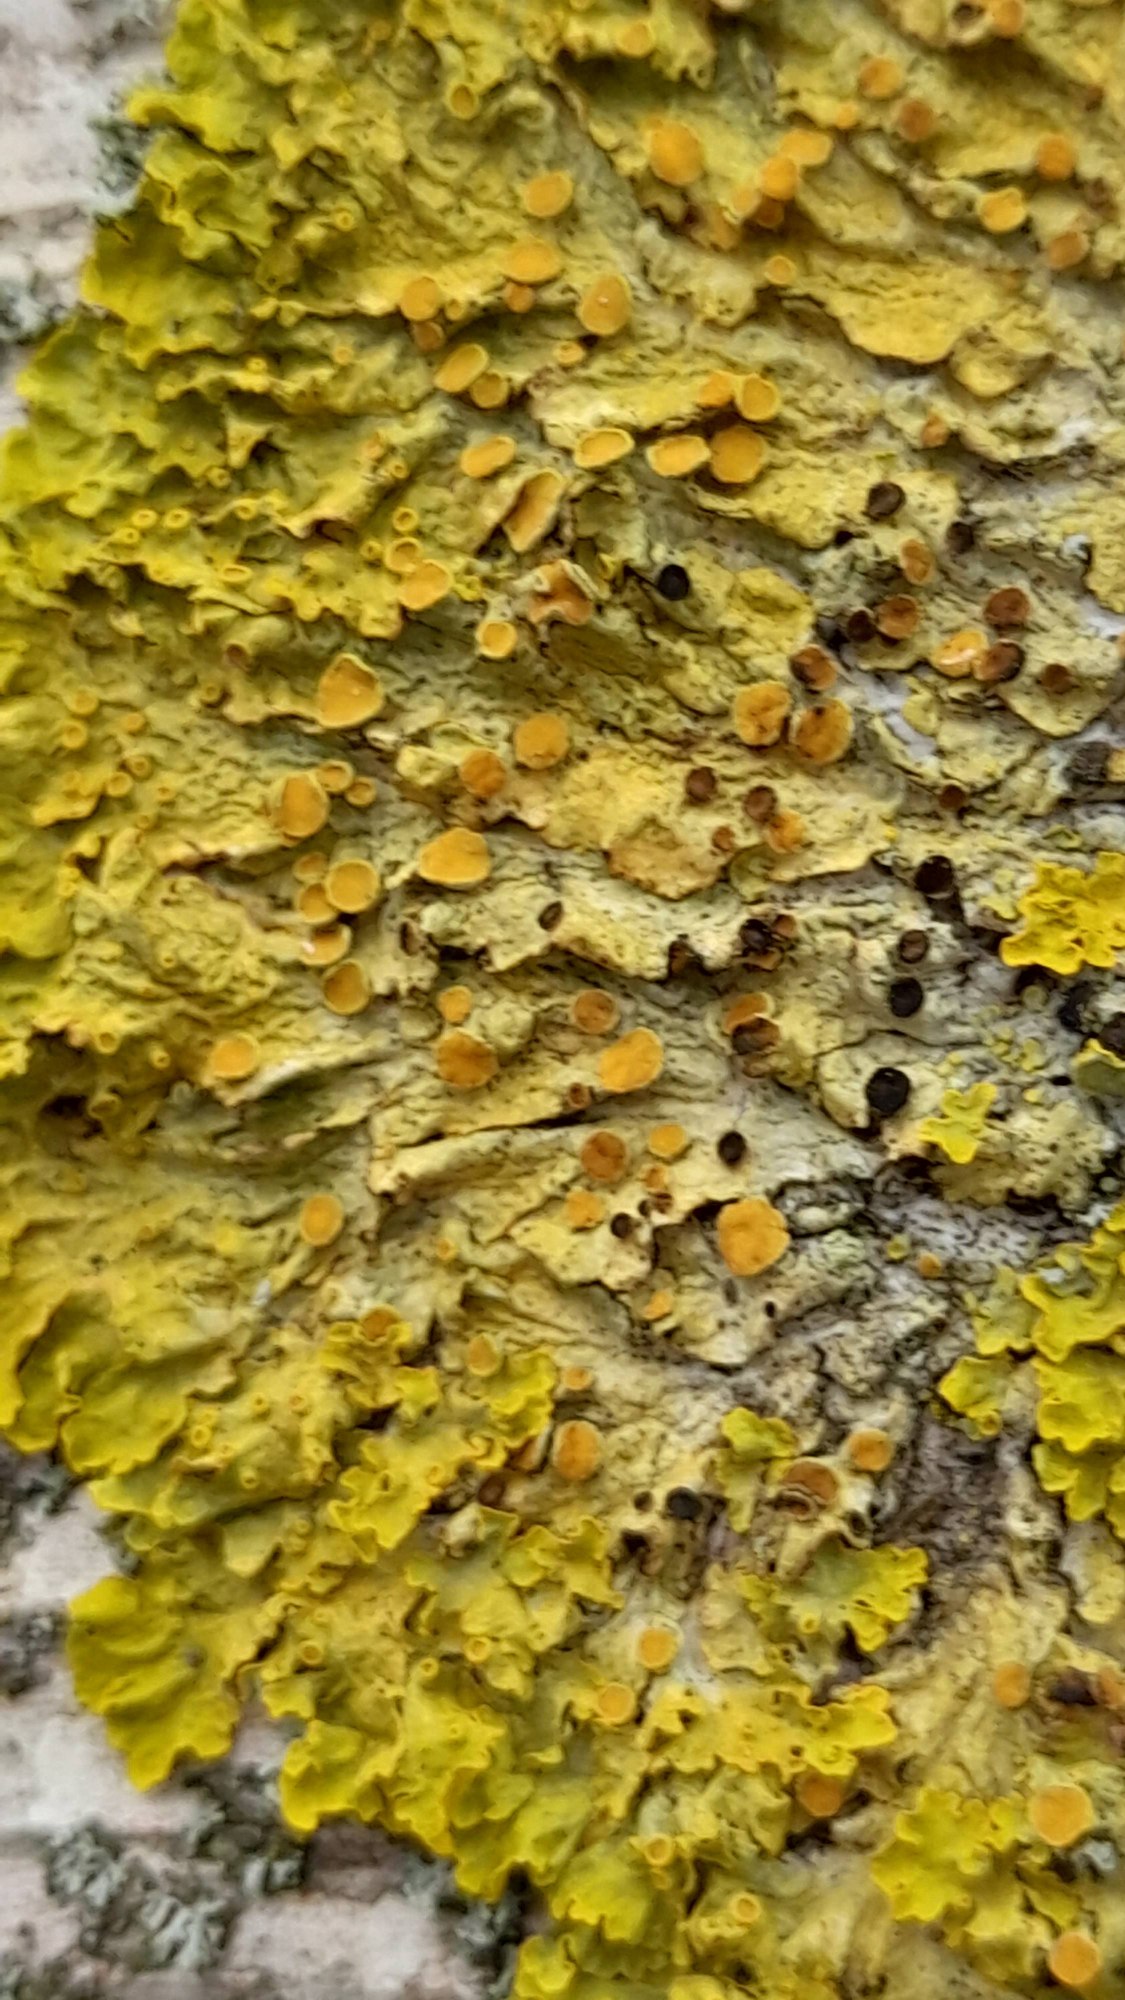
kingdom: Fungi
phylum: Ascomycota
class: Lecanoromycetes
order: Teloschistales
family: Teloschistaceae
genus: Xanthoria
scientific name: Xanthoria parietina
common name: Almindelig væggelav
